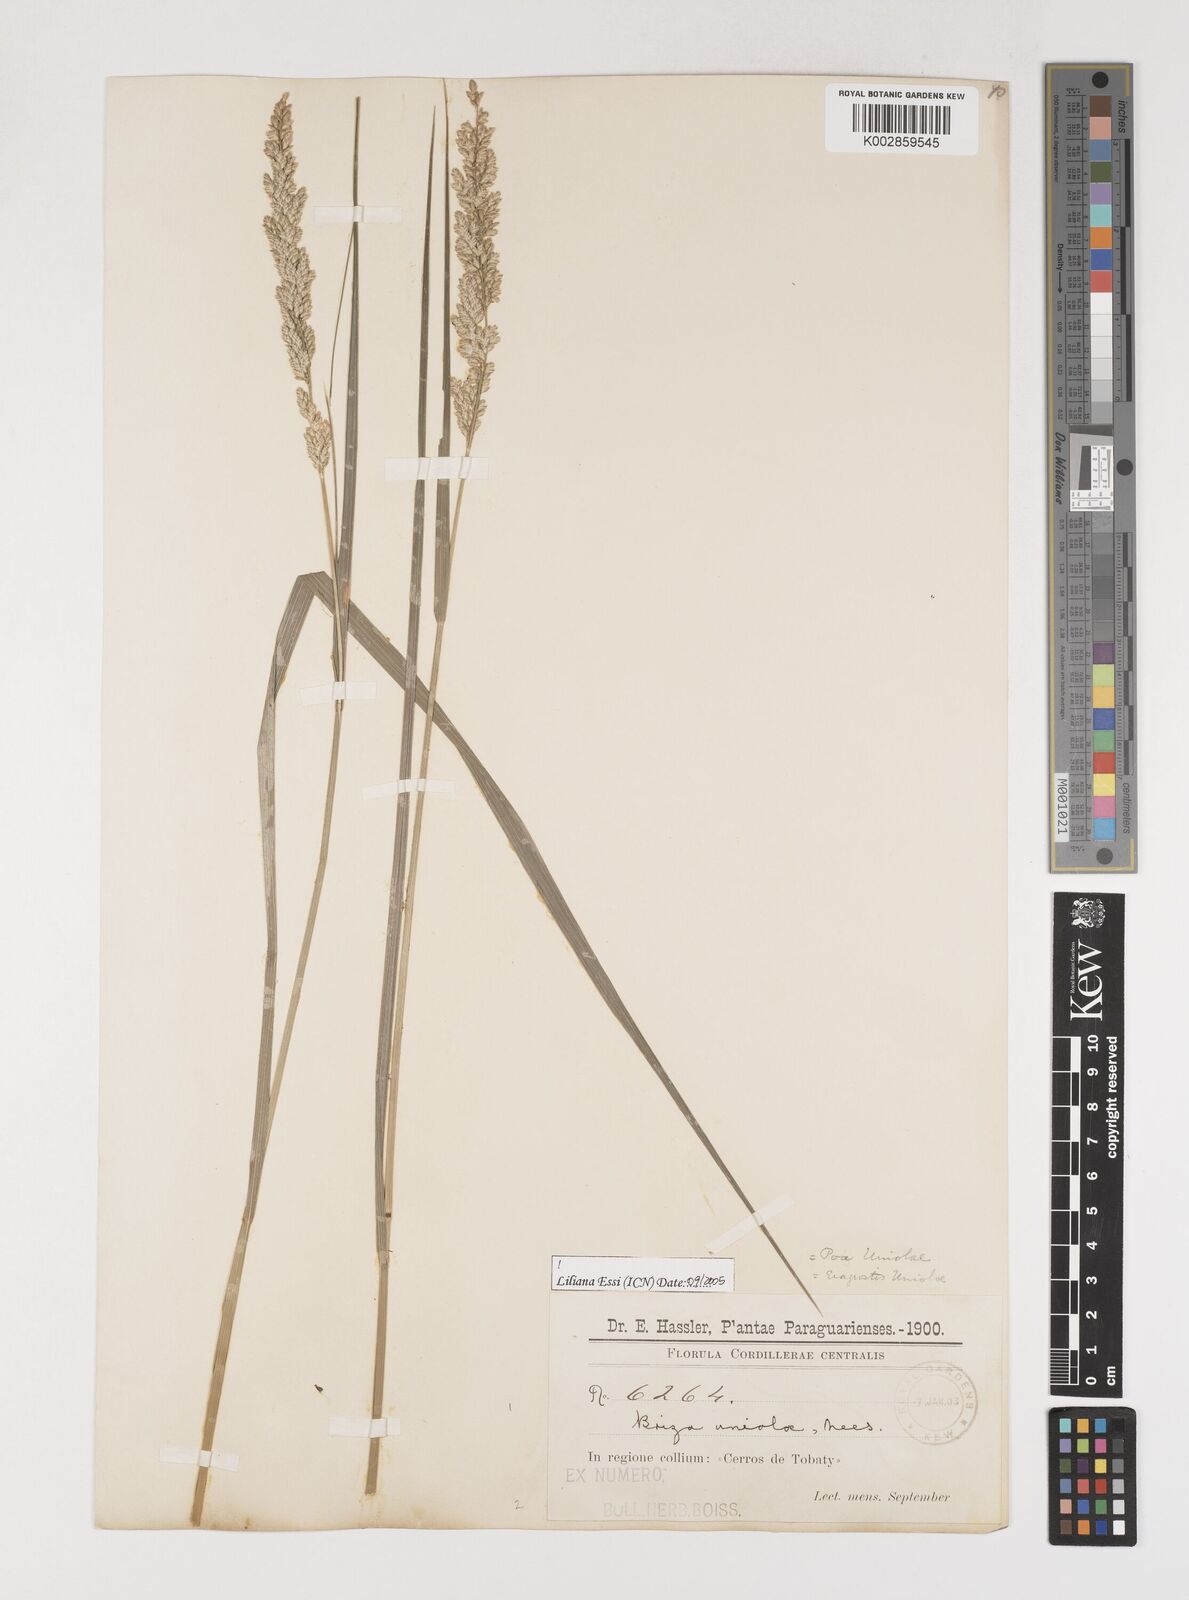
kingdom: Plantae
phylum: Tracheophyta
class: Liliopsida
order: Poales
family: Poaceae
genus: Poidium
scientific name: Poidium uniolae
